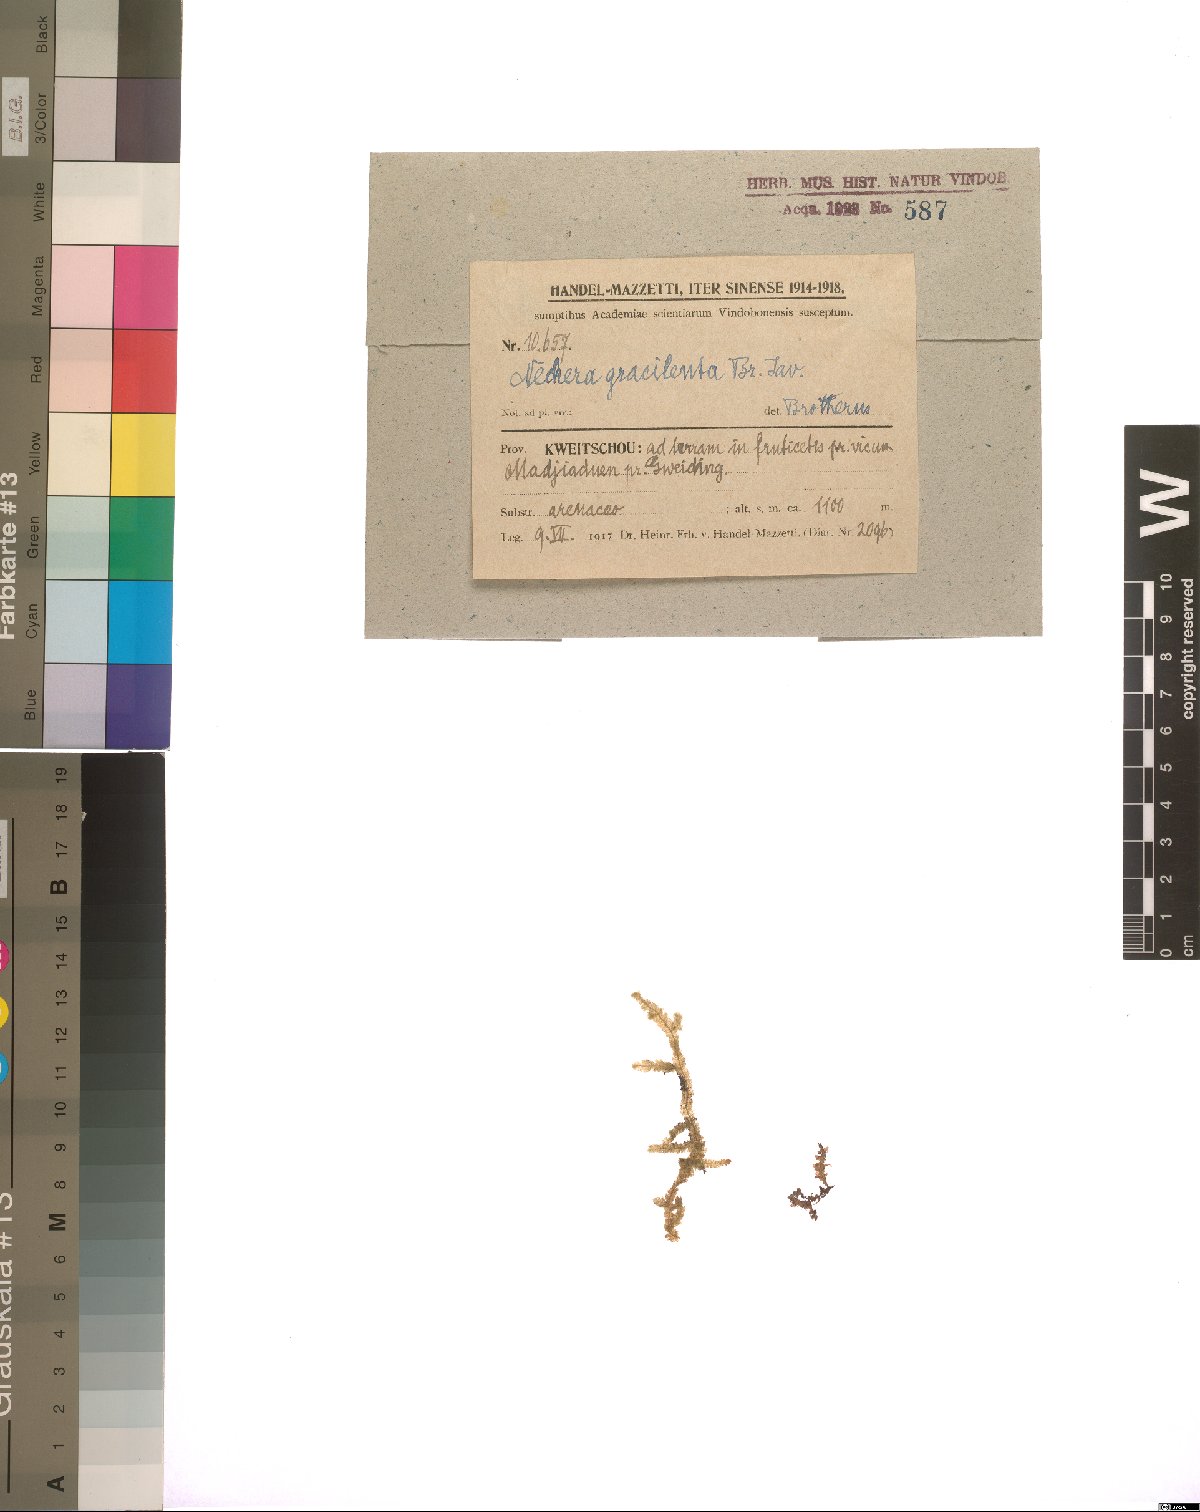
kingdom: Plantae
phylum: Bryophyta
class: Bryopsida
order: Hypnales
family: Neckeraceae
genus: Neckeromnion
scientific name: Neckeromnion gracilentum
